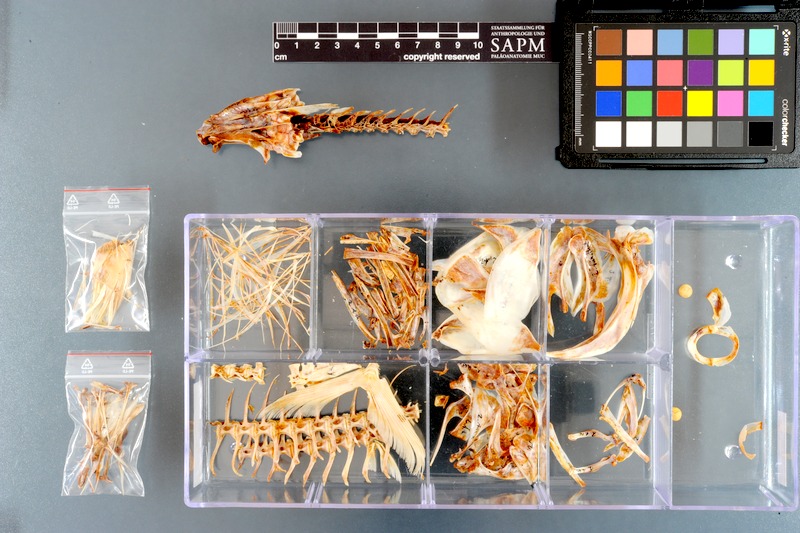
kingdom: Animalia
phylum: Chordata
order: Perciformes
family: Scombridae
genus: Auxis
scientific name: Auxis thazard
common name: Frigate mackerel
